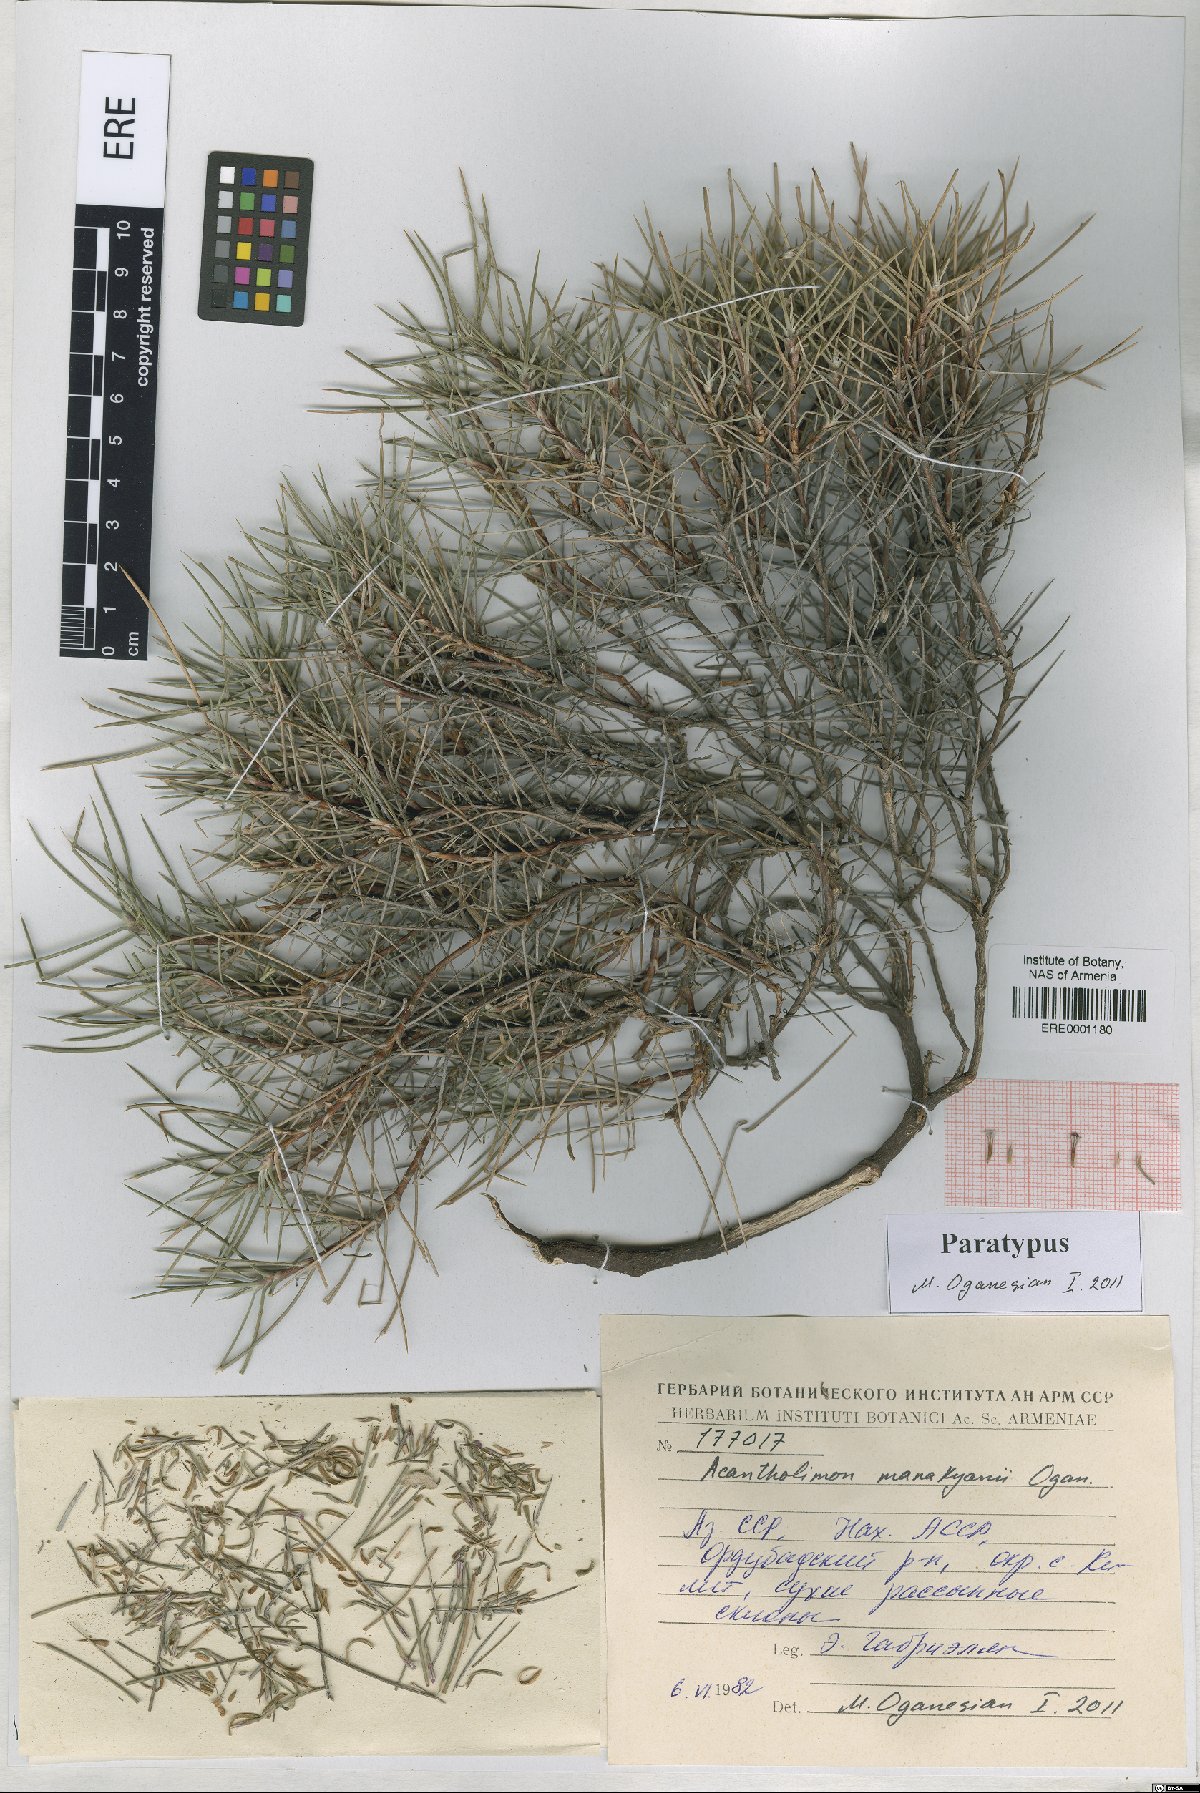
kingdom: Plantae
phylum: Tracheophyta
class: Magnoliopsida
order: Caryophyllales
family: Plumbaginaceae
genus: Acantholimon
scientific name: Acantholimon manakyanii
